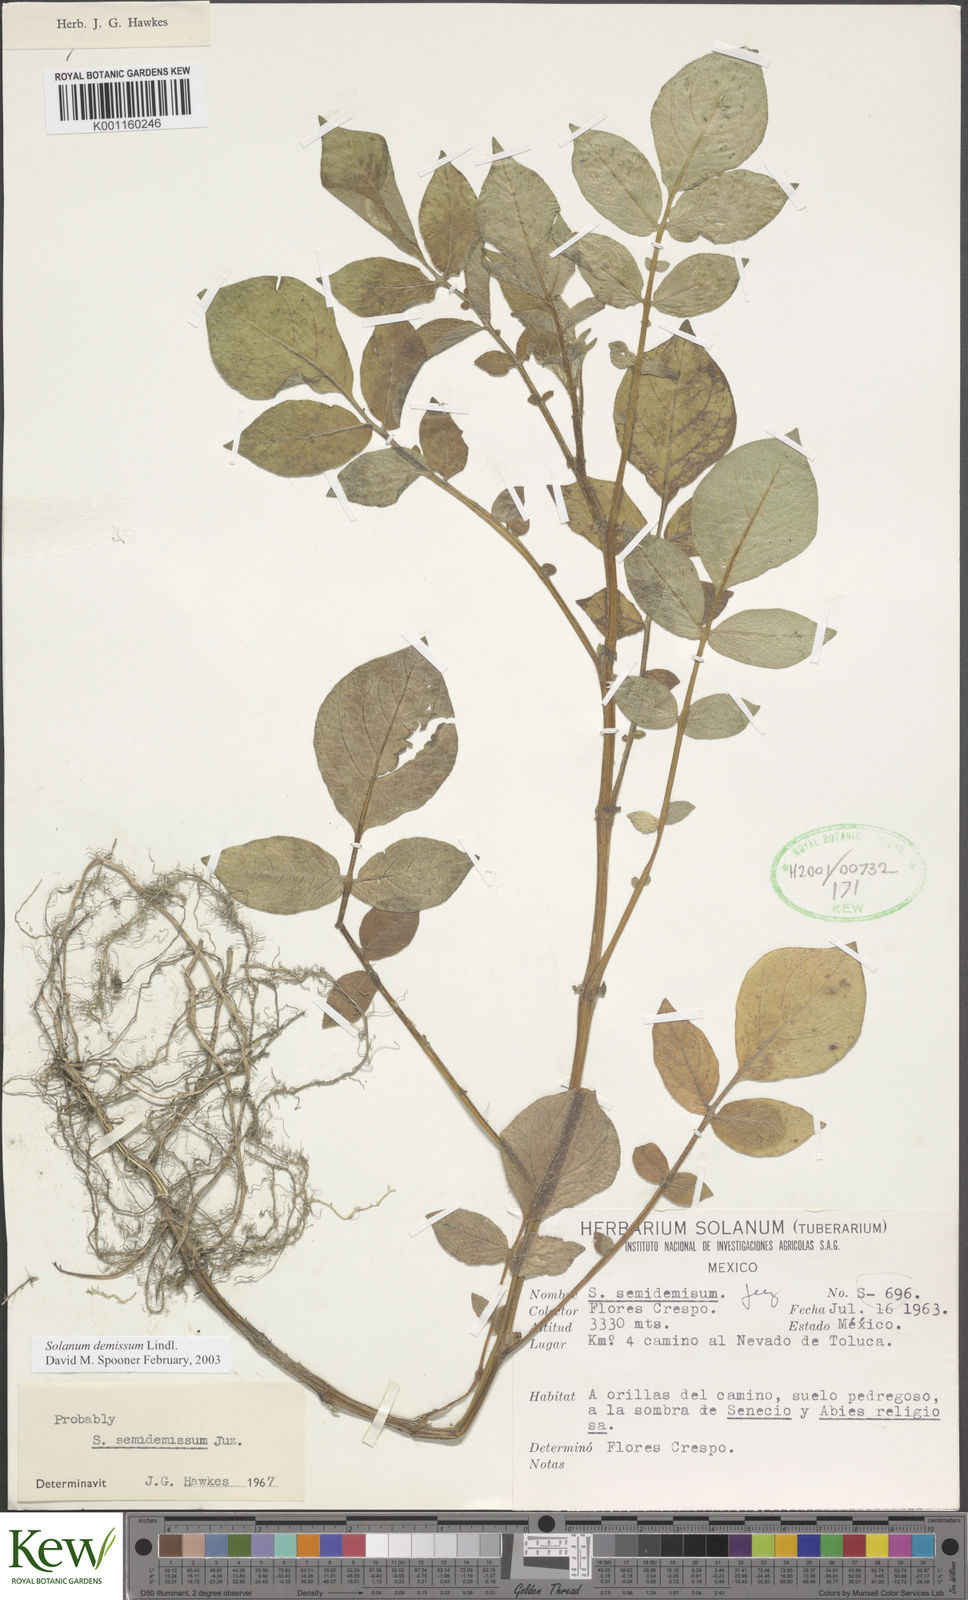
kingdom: Plantae
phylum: Tracheophyta
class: Magnoliopsida
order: Solanales
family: Solanaceae
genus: Solanum
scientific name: Solanum demissum
